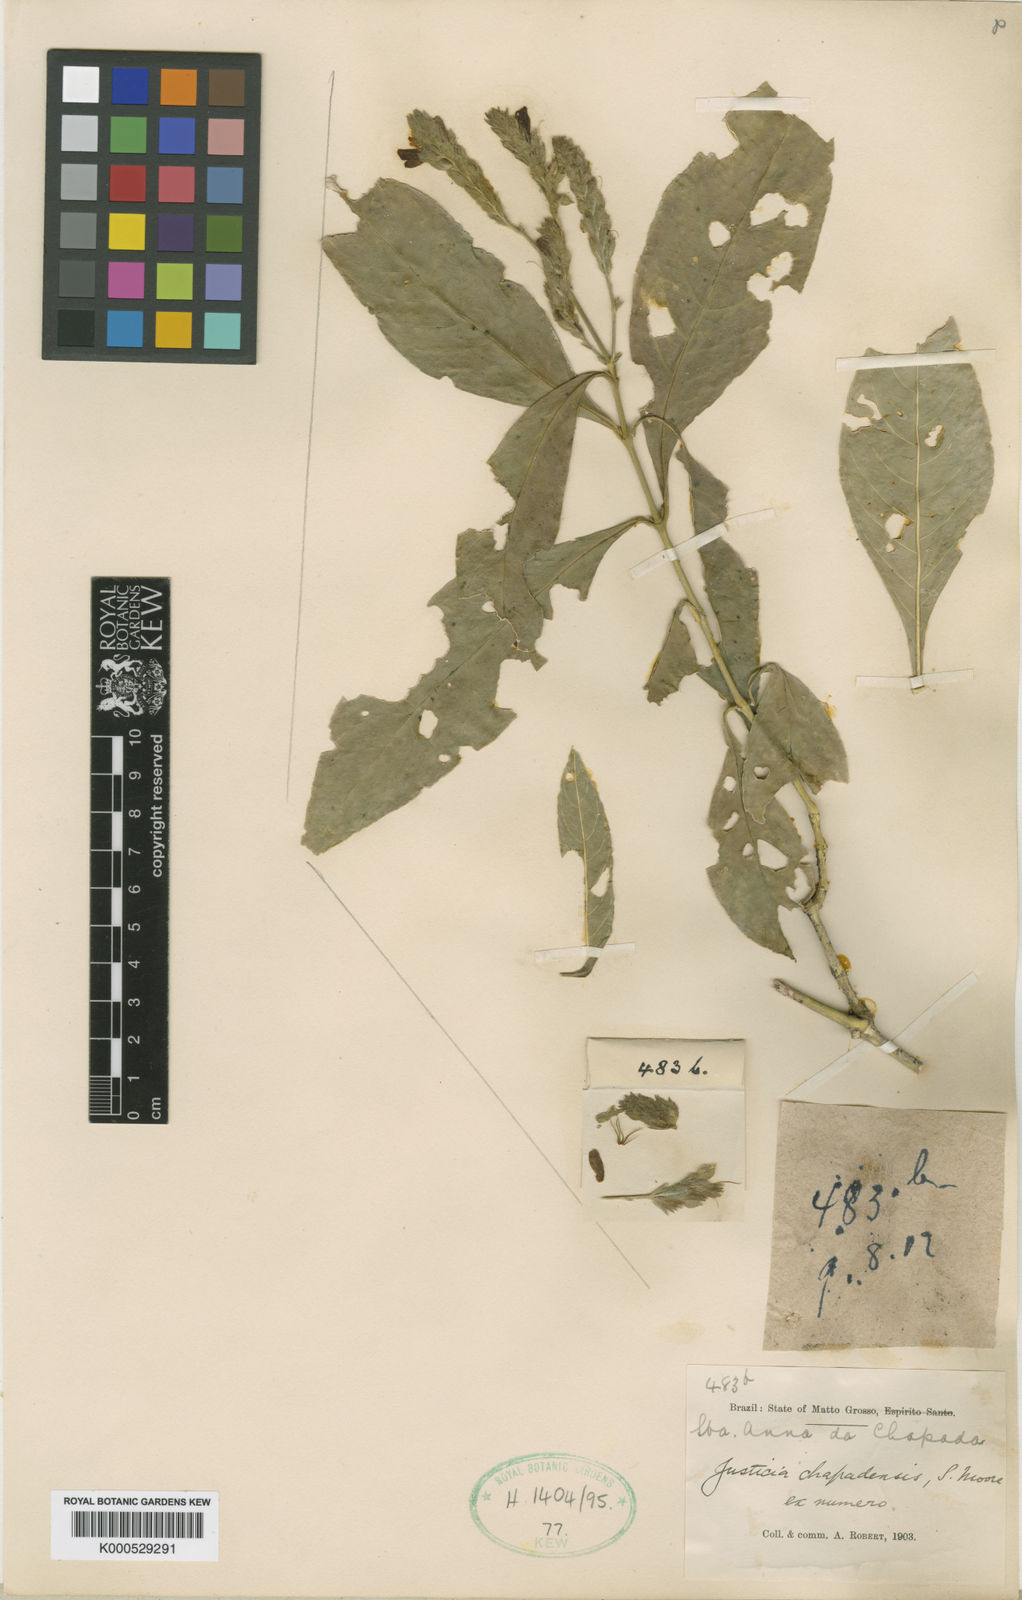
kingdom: Plantae
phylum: Tracheophyta
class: Magnoliopsida
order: Lamiales
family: Acanthaceae
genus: Justicia
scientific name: Justicia robertii
